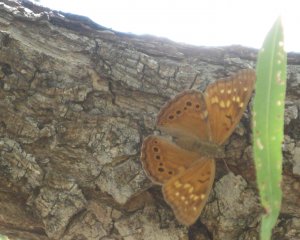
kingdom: Animalia
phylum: Arthropoda
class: Insecta
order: Lepidoptera
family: Nymphalidae
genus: Asterocampa
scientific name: Asterocampa clyton
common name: Tawny Emperor
